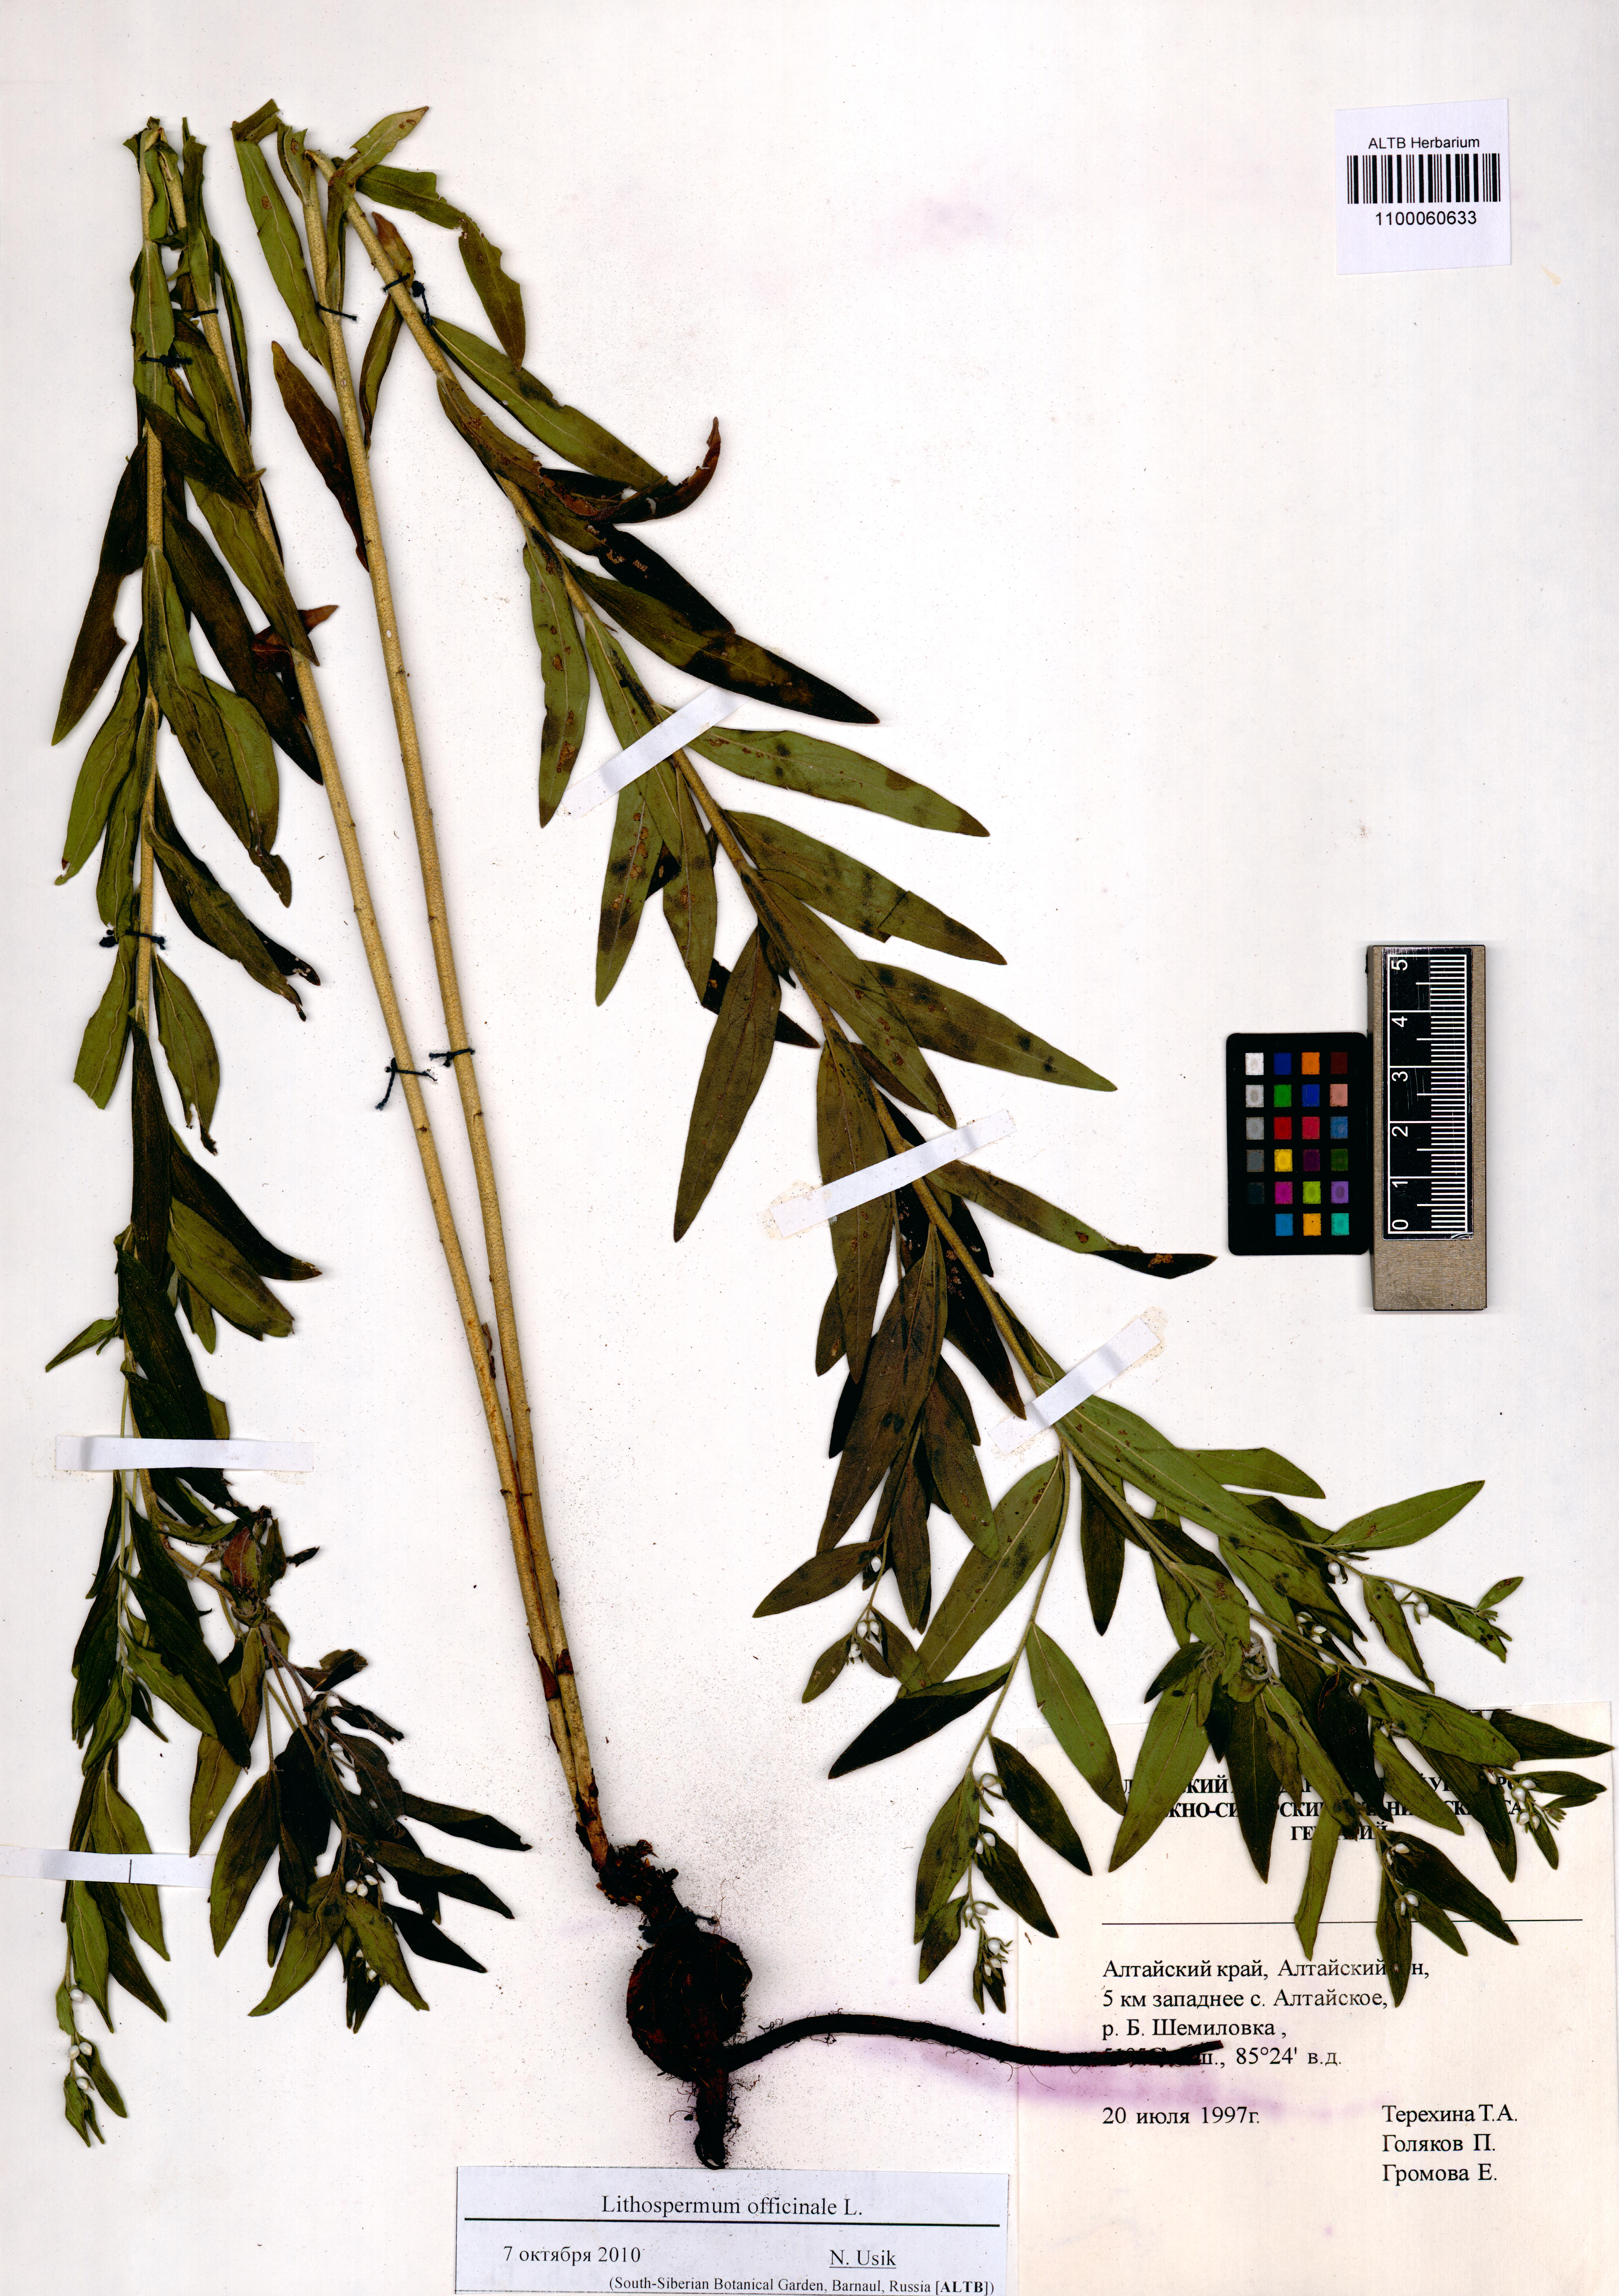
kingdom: Plantae
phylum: Tracheophyta
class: Magnoliopsida
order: Boraginales
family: Boraginaceae
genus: Lithospermum
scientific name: Lithospermum officinale
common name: Common gromwell
